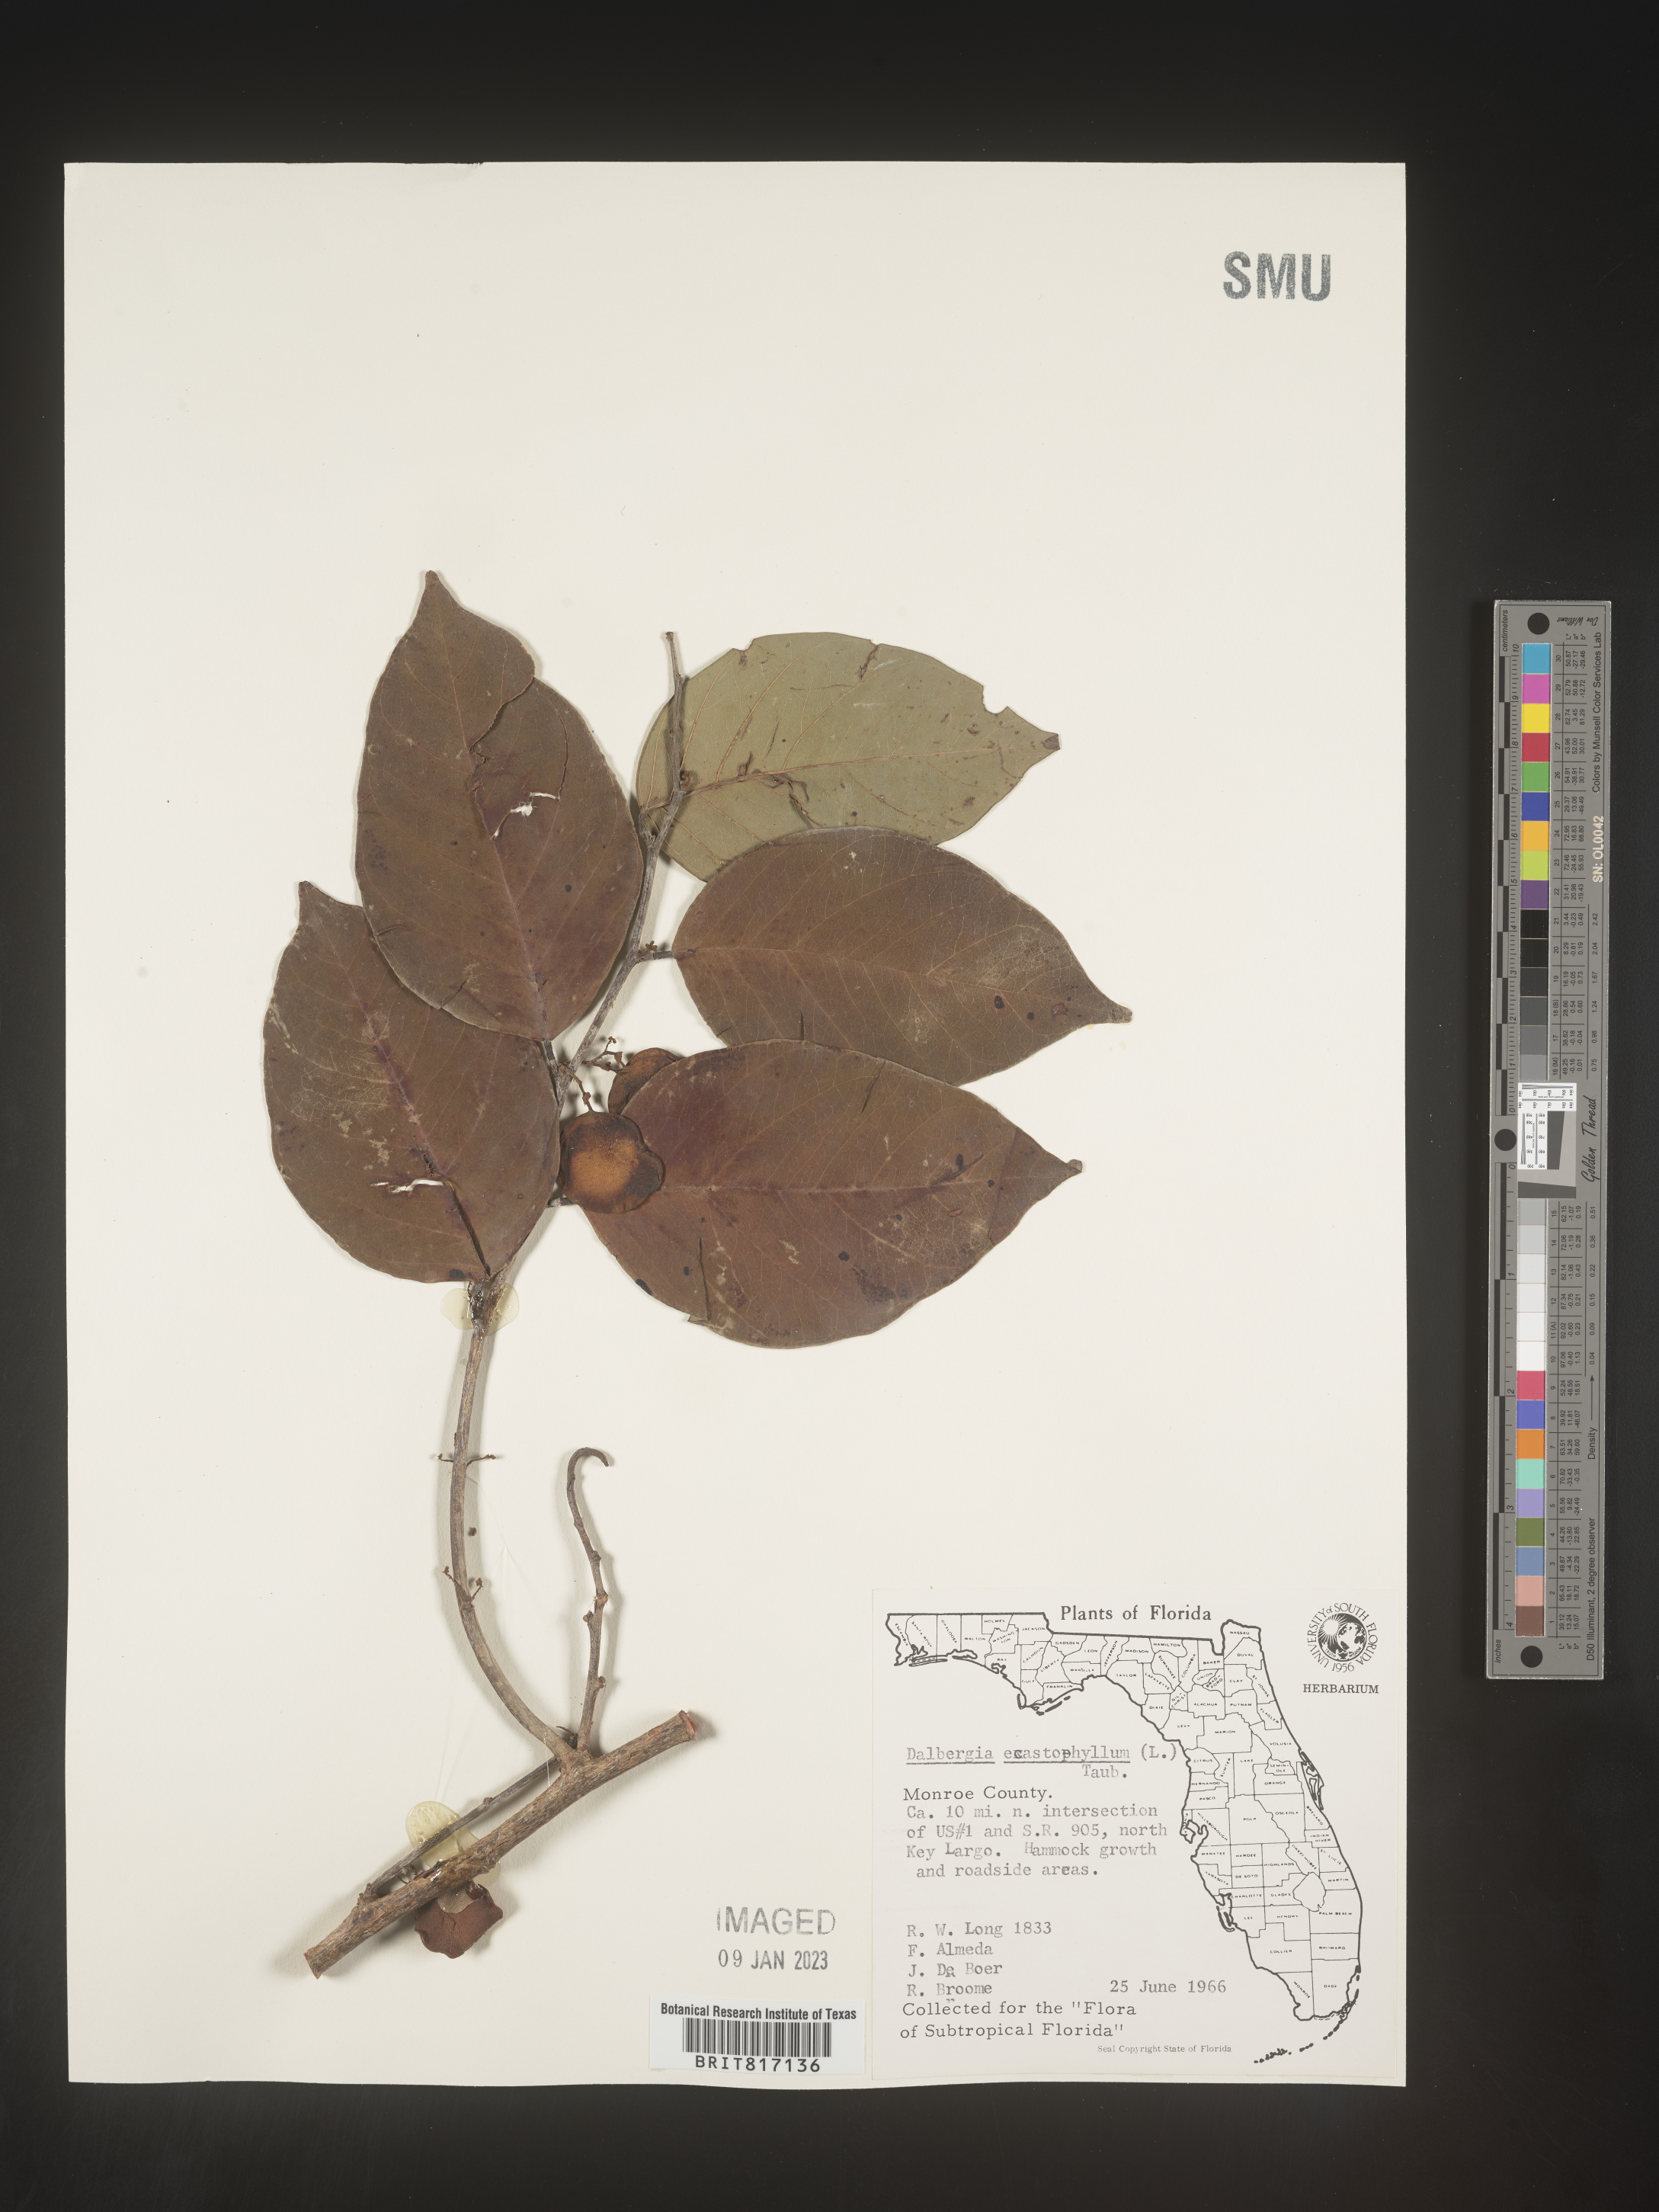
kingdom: Plantae
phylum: Tracheophyta
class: Magnoliopsida
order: Fabales
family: Fabaceae
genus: Dalbergia
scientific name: Dalbergia
